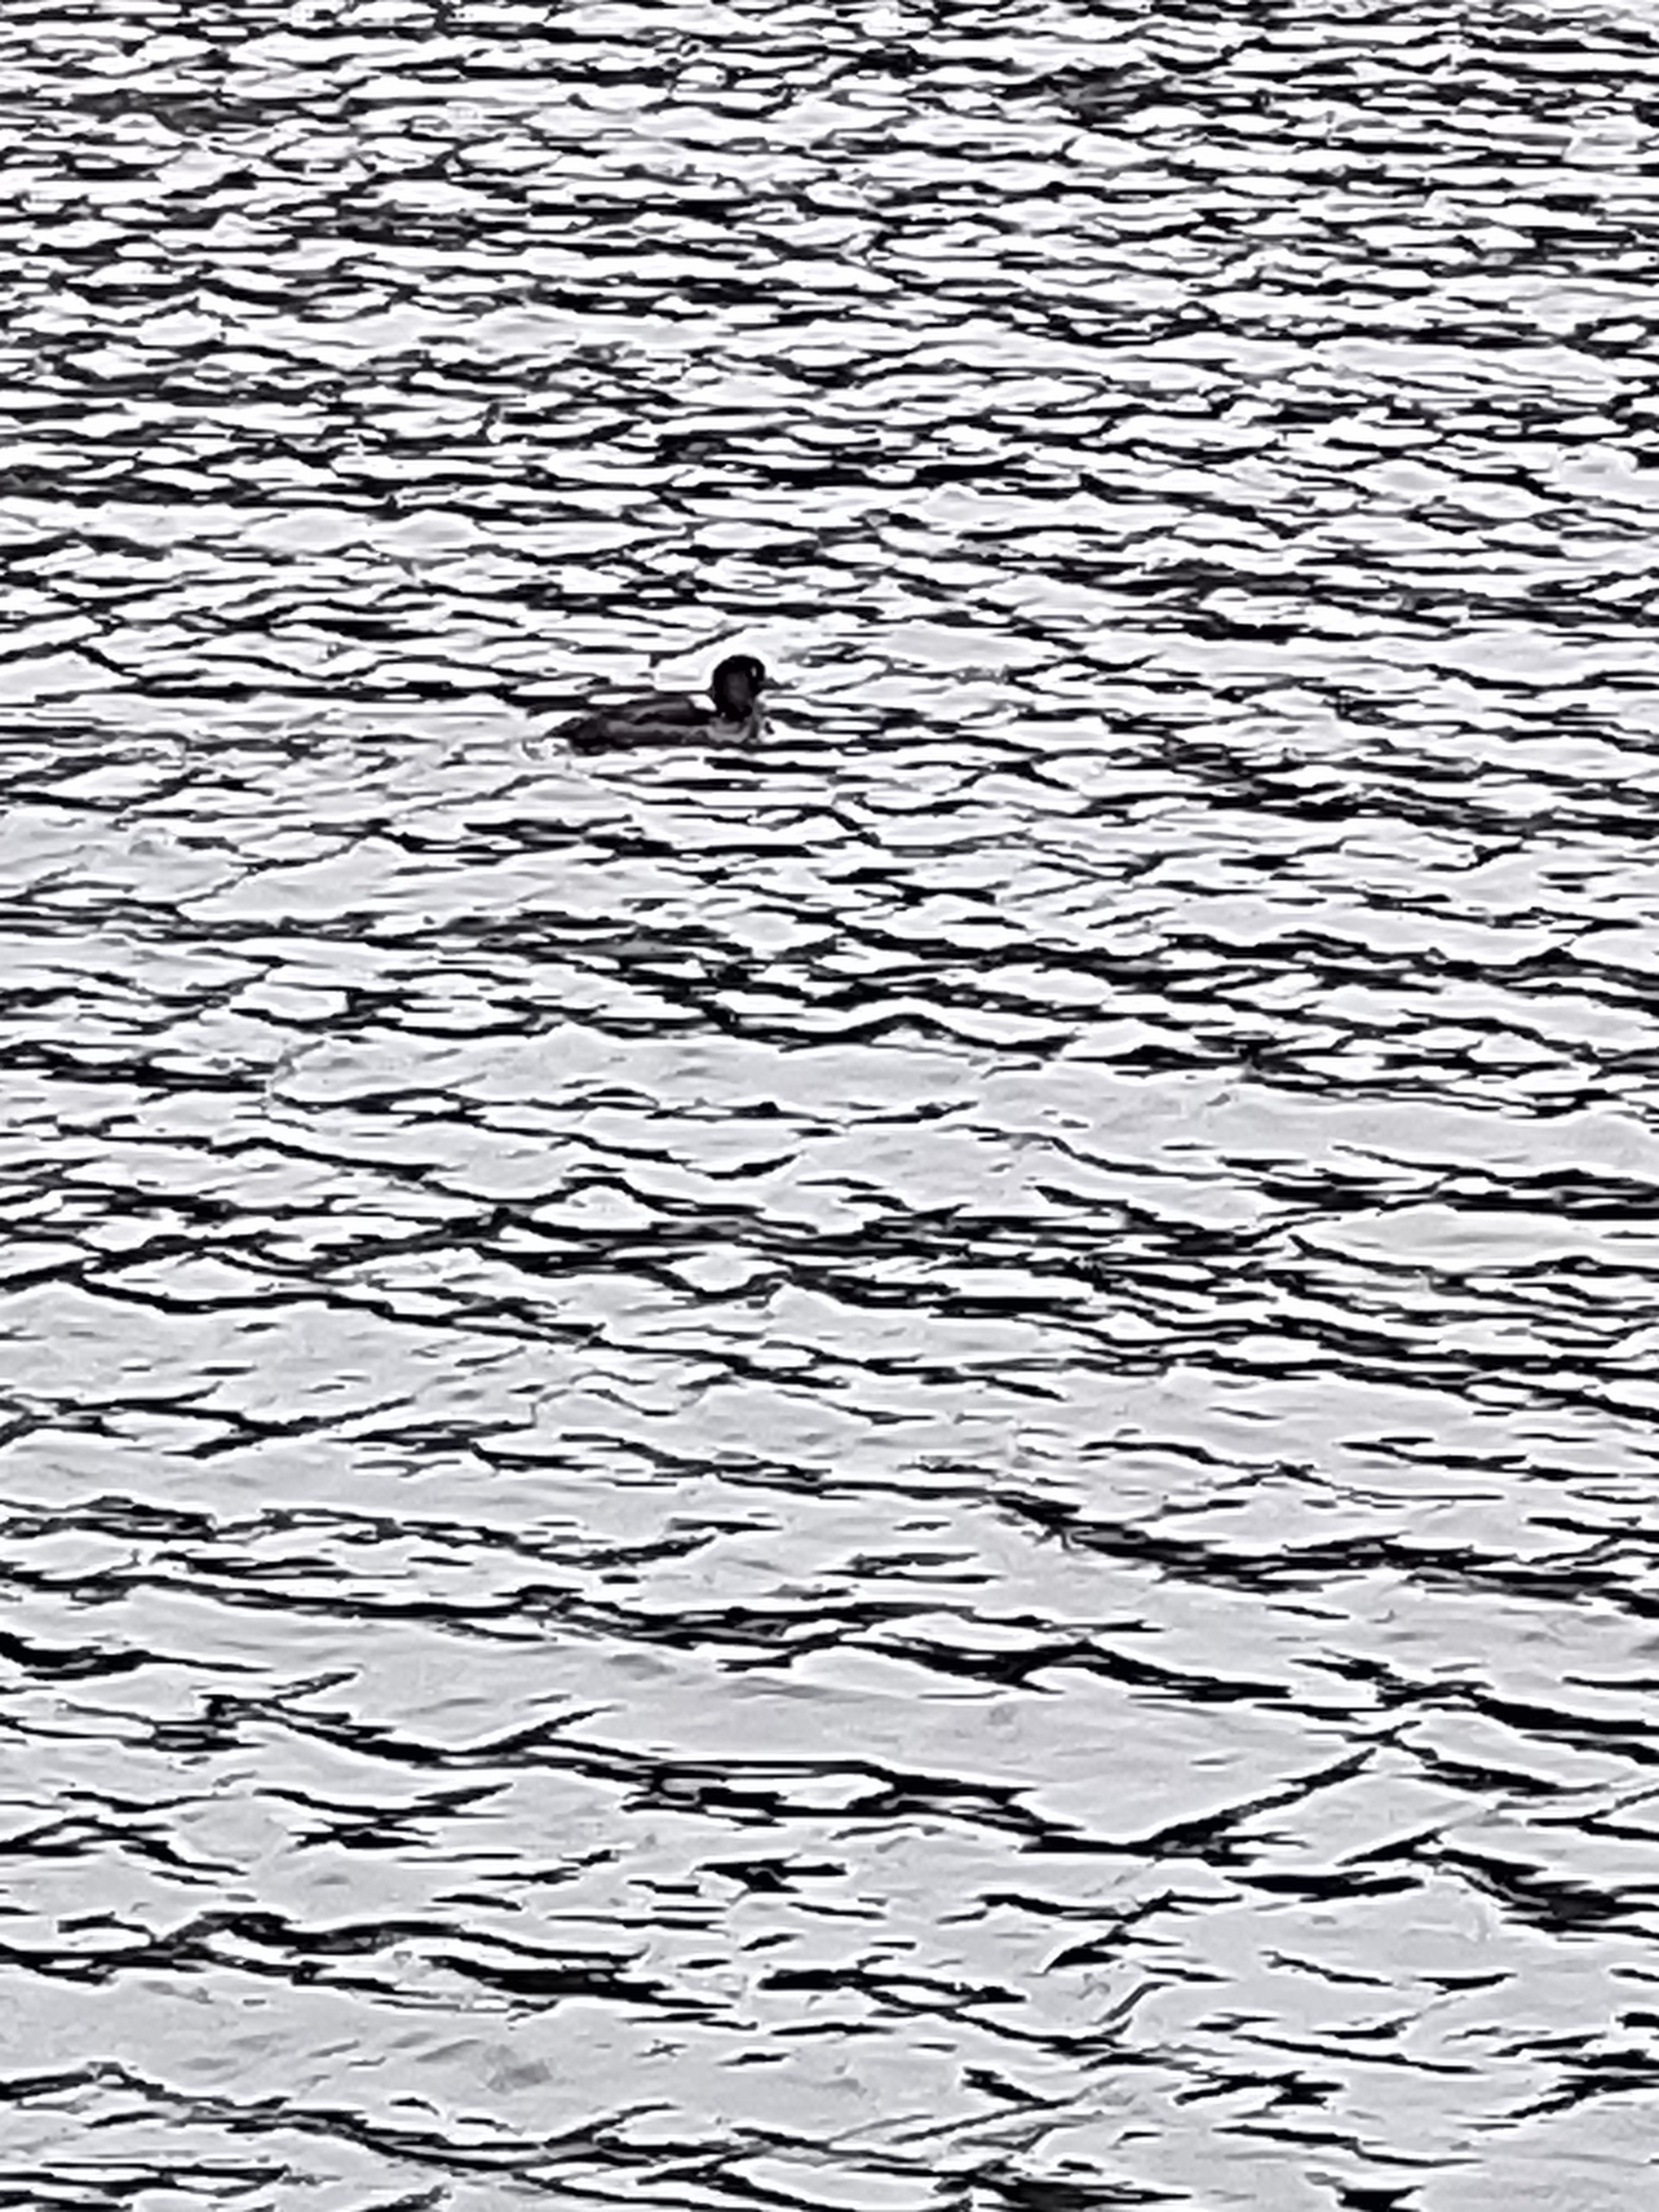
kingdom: Animalia
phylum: Chordata
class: Aves
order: Anseriformes
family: Anatidae
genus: Aythya
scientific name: Aythya fuligula
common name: Troldand
